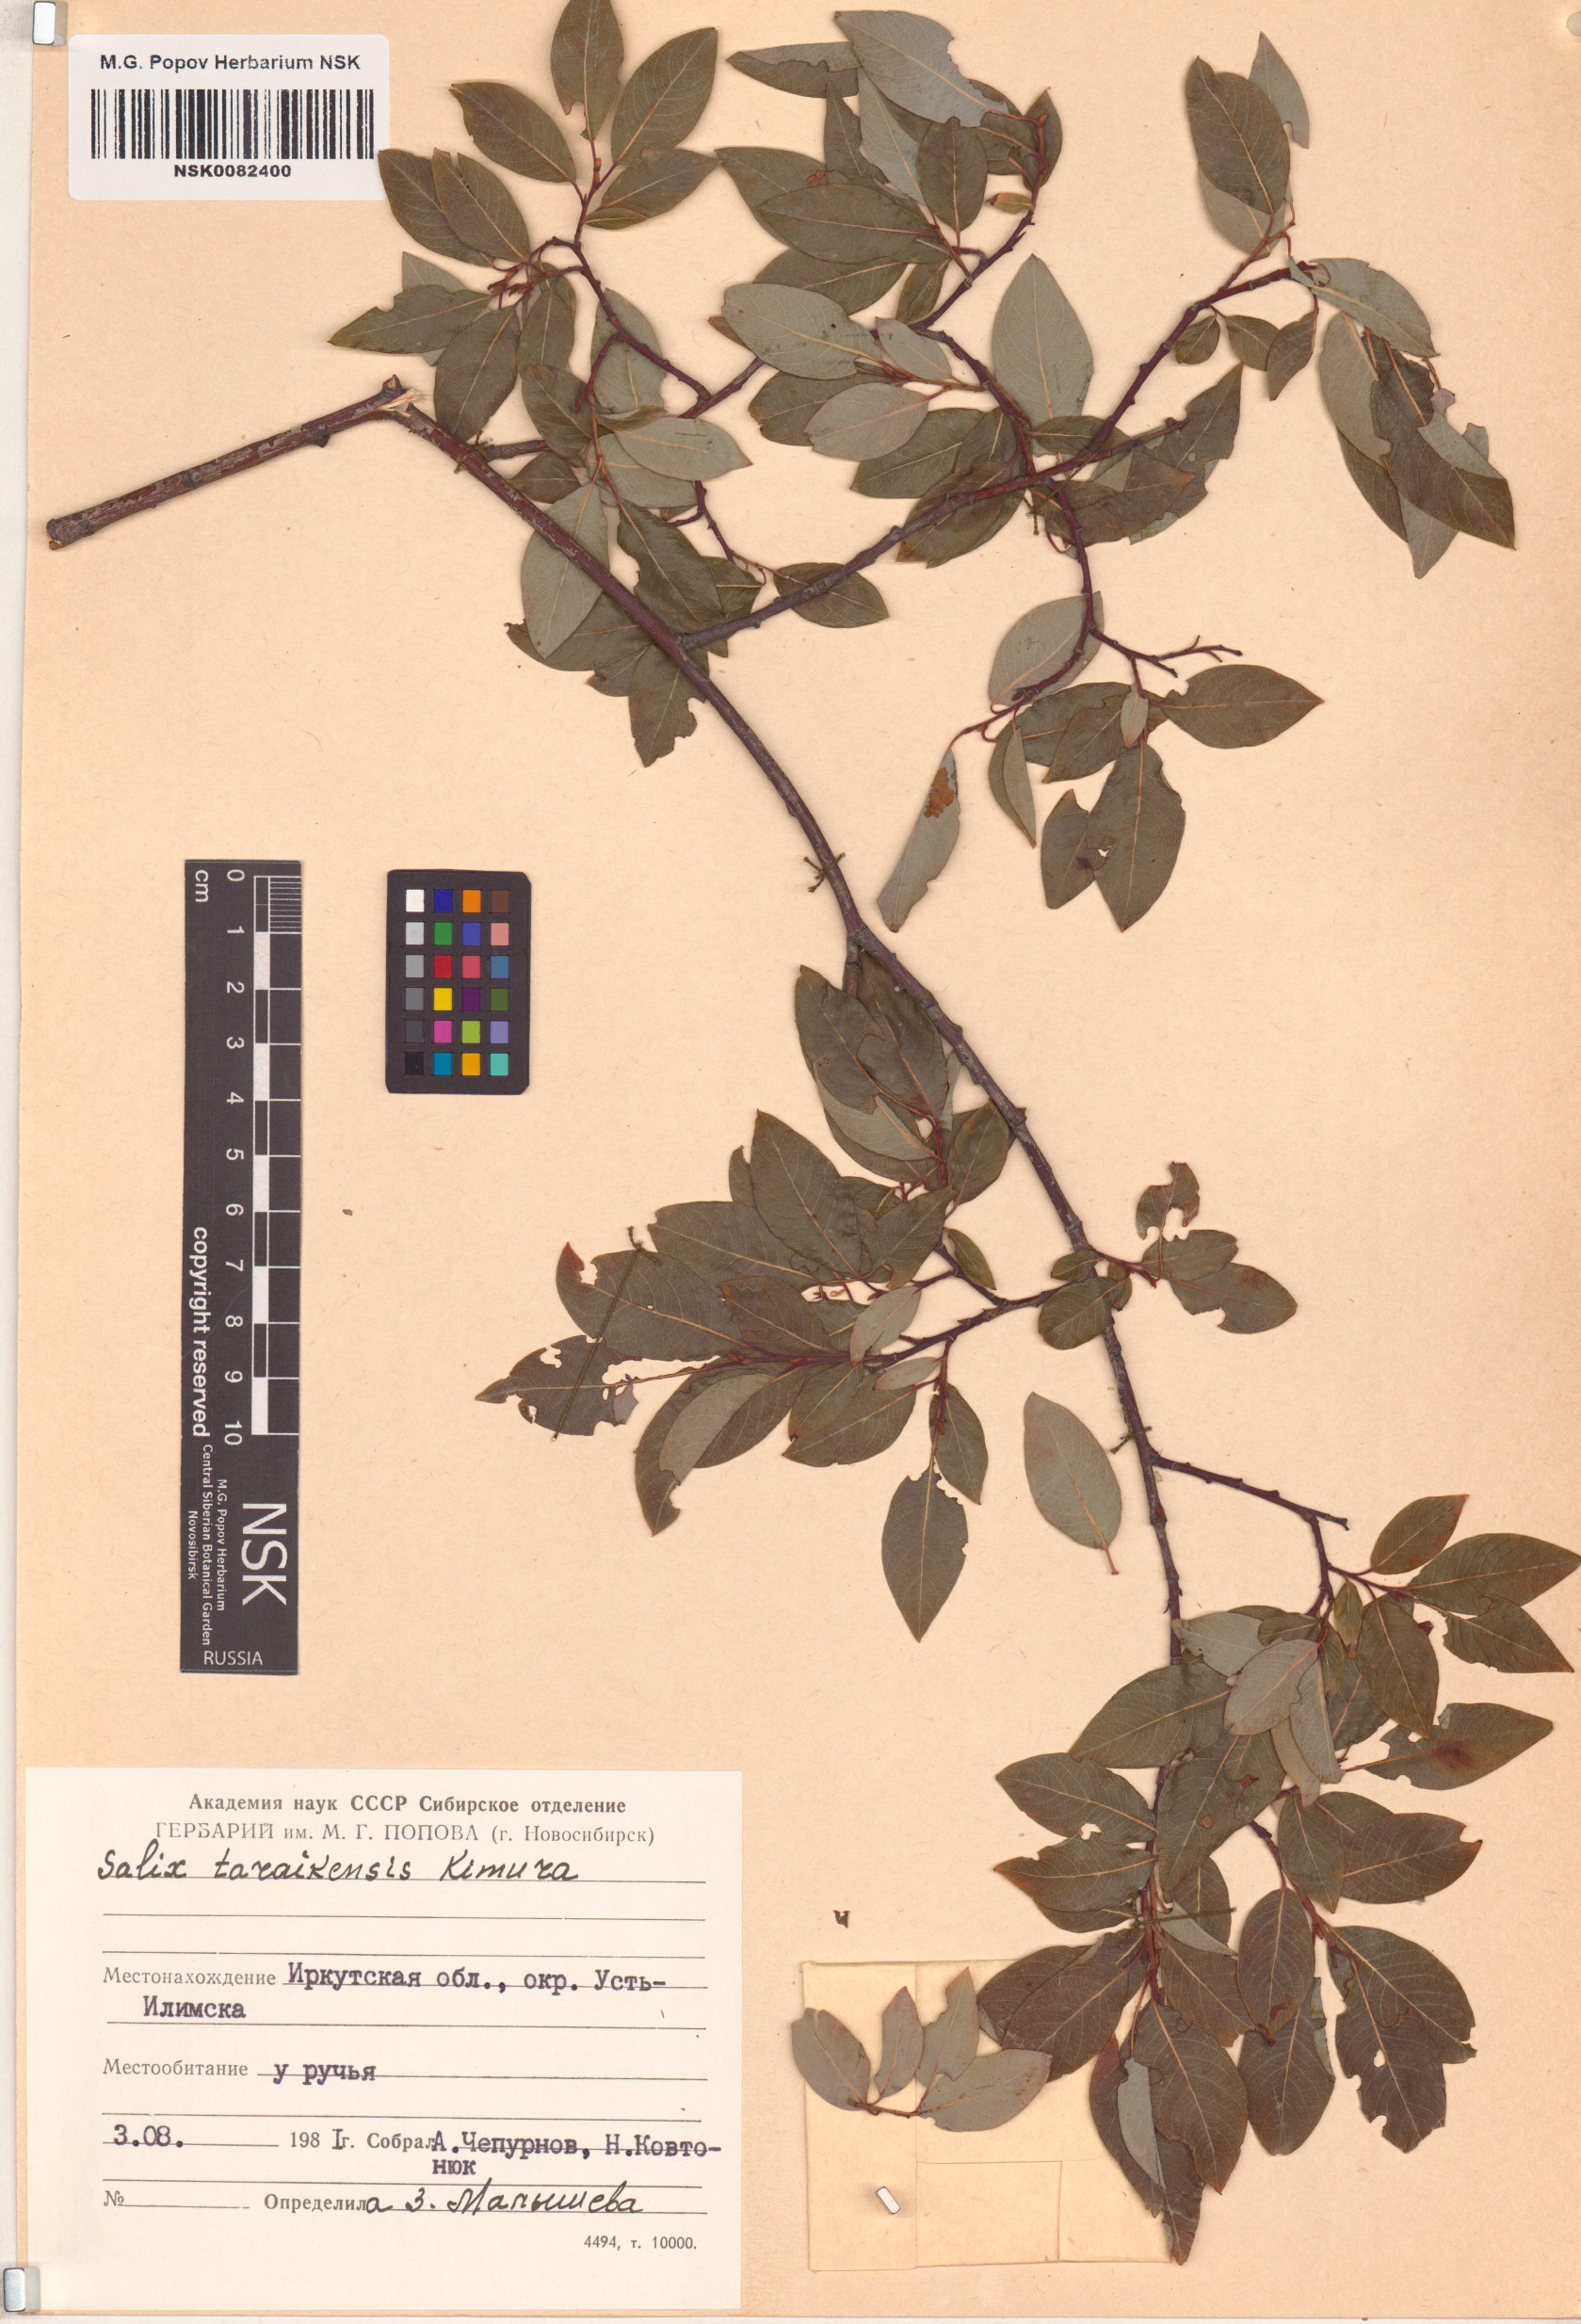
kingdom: Plantae
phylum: Tracheophyta
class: Magnoliopsida
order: Malpighiales
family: Salicaceae
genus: Salix
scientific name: Salix taraikensis
